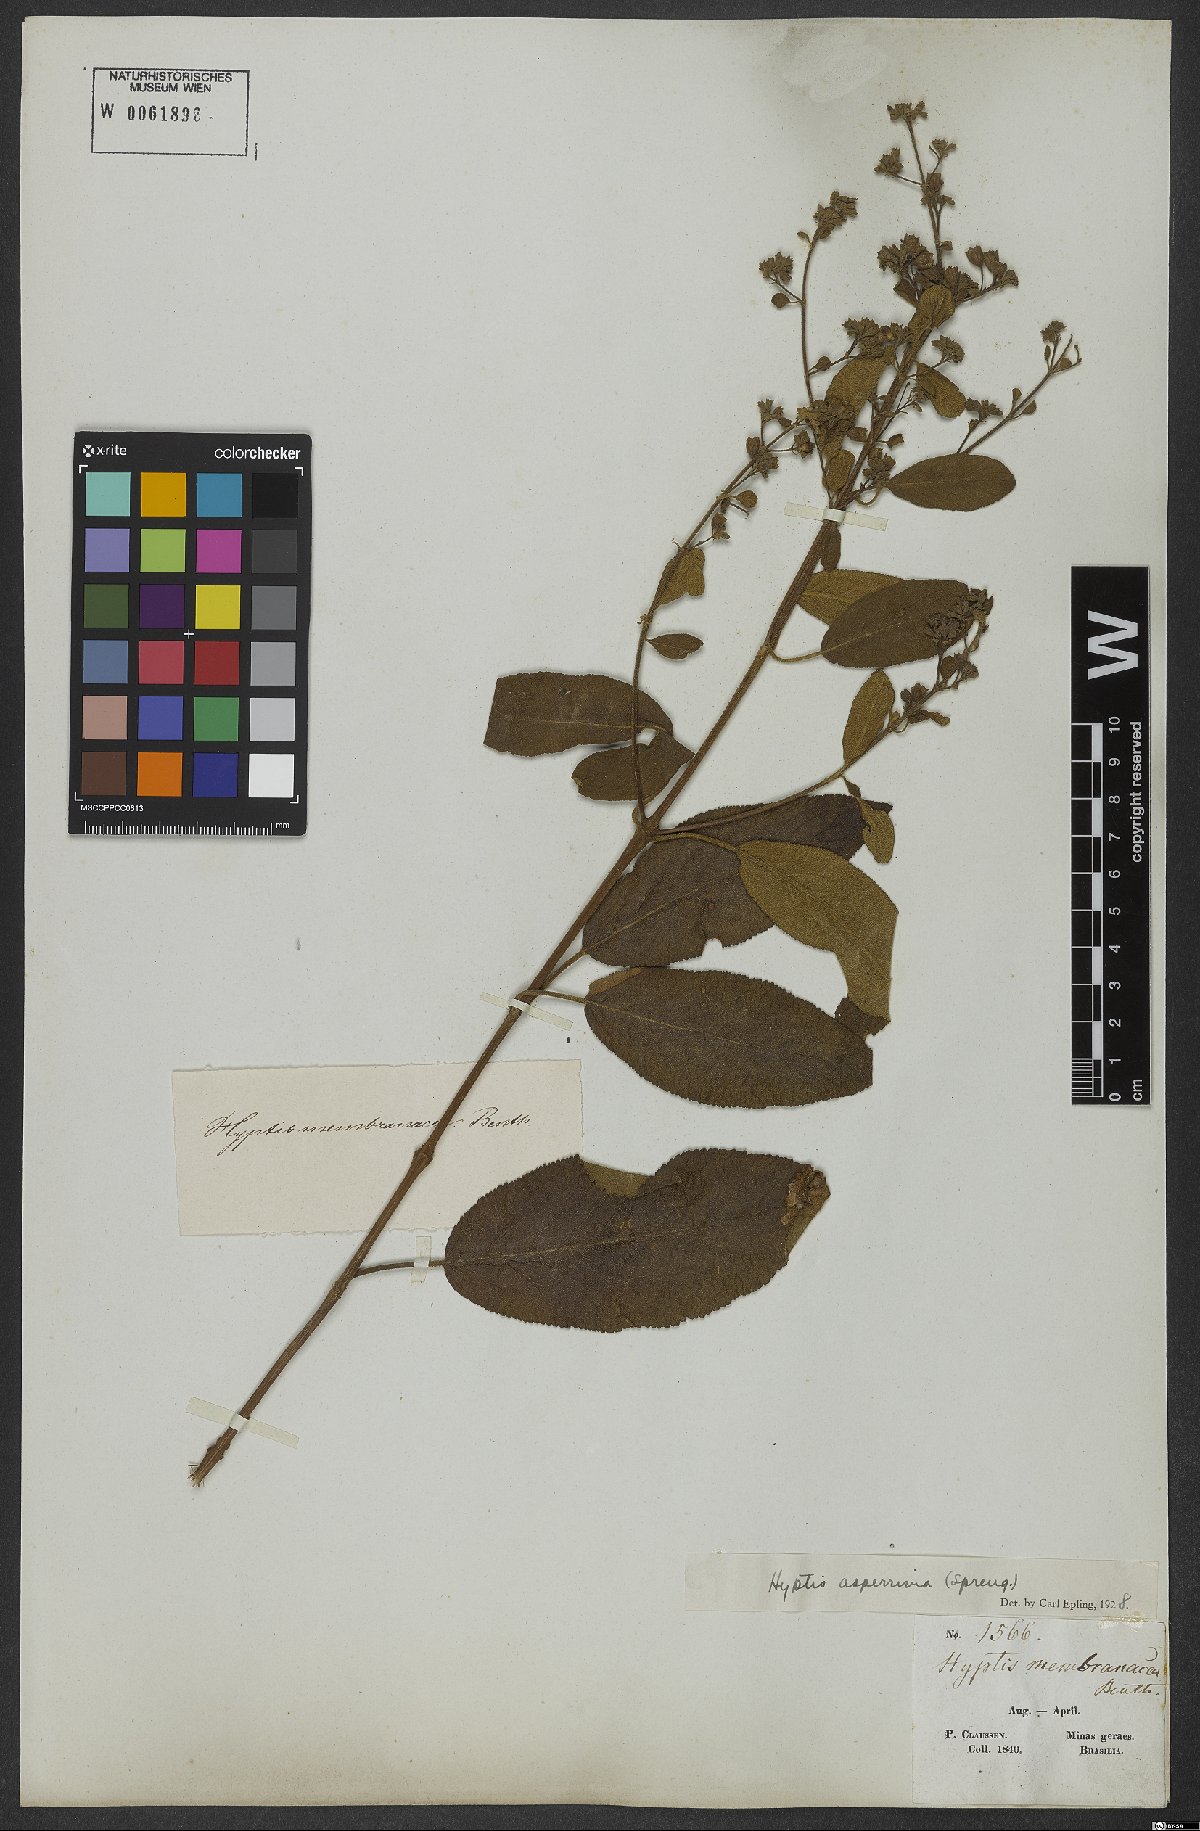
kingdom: Plantae
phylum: Tracheophyta
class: Magnoliopsida
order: Lamiales
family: Lamiaceae
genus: Hyptidendron
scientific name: Hyptidendron asperrimum
